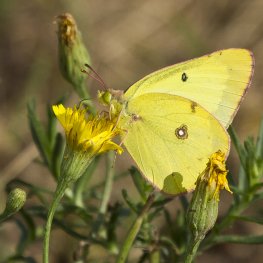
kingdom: Animalia
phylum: Arthropoda
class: Insecta
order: Lepidoptera
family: Pieridae
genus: Colias
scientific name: Colias philodice
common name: Clouded Sulphur
